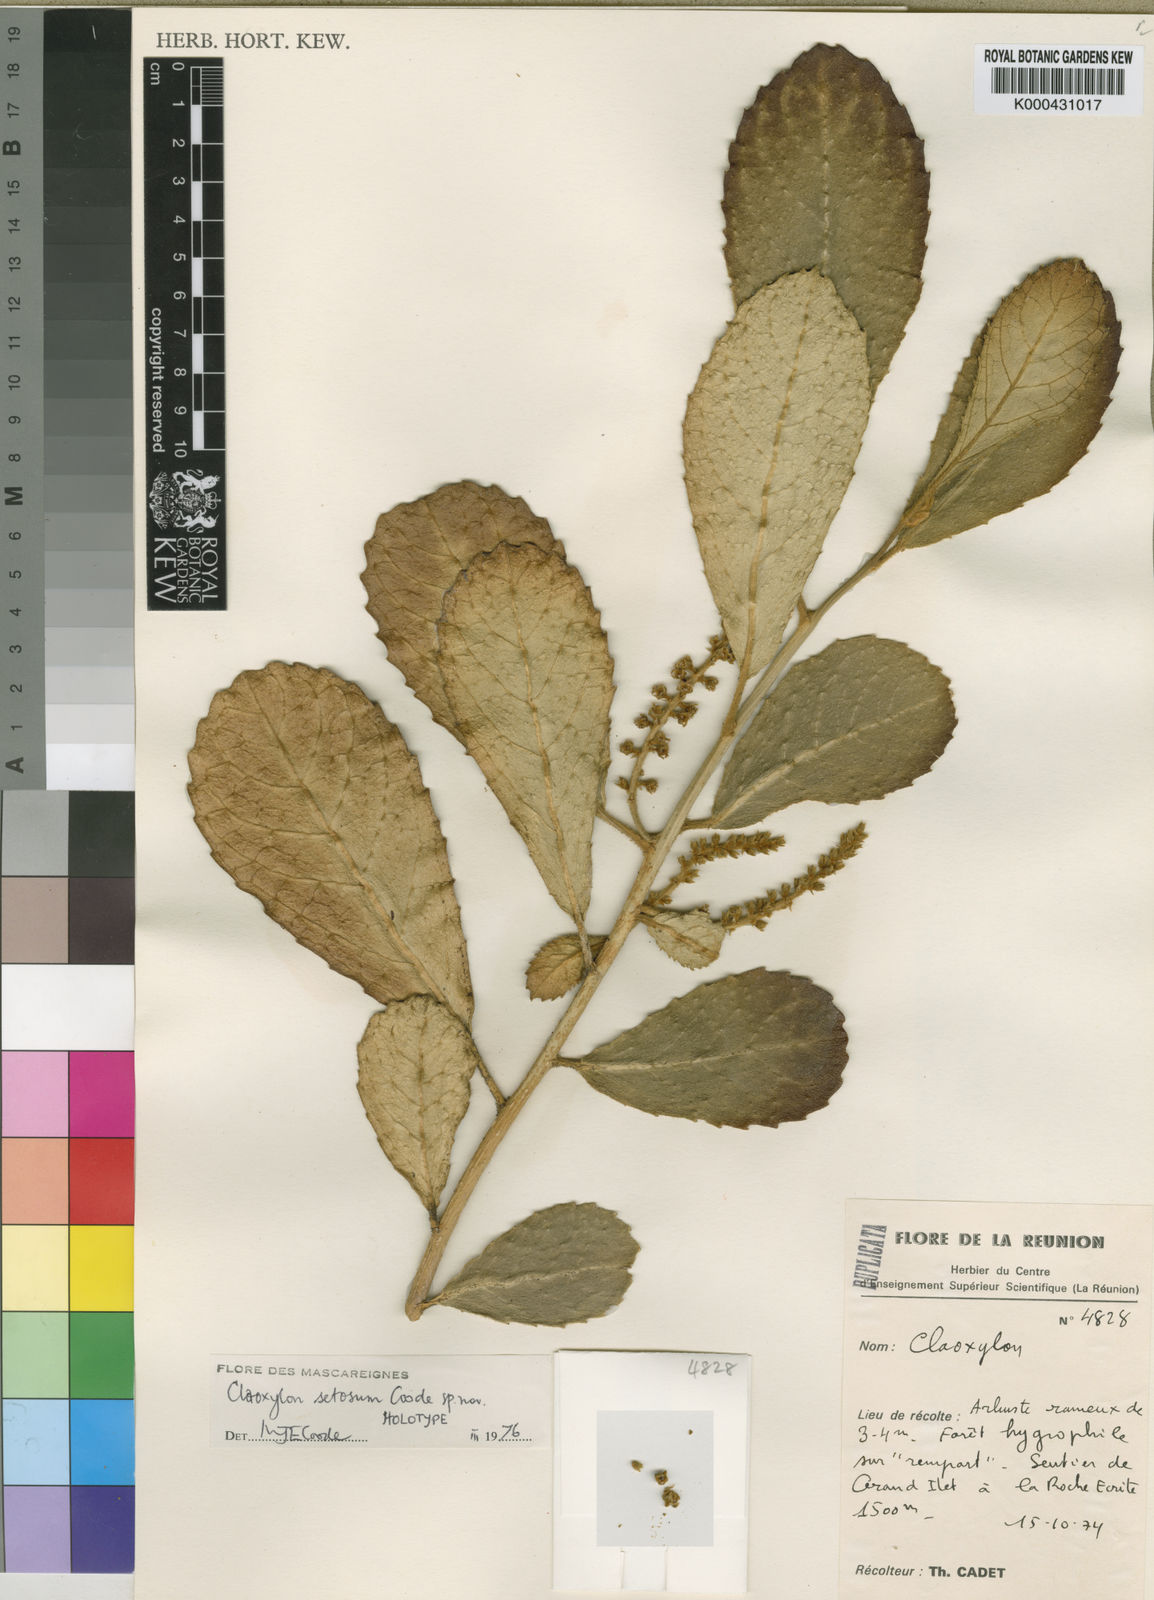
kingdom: Plantae
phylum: Tracheophyta
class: Magnoliopsida
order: Malpighiales
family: Euphorbiaceae
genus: Claoxylon
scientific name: Claoxylon setosum
